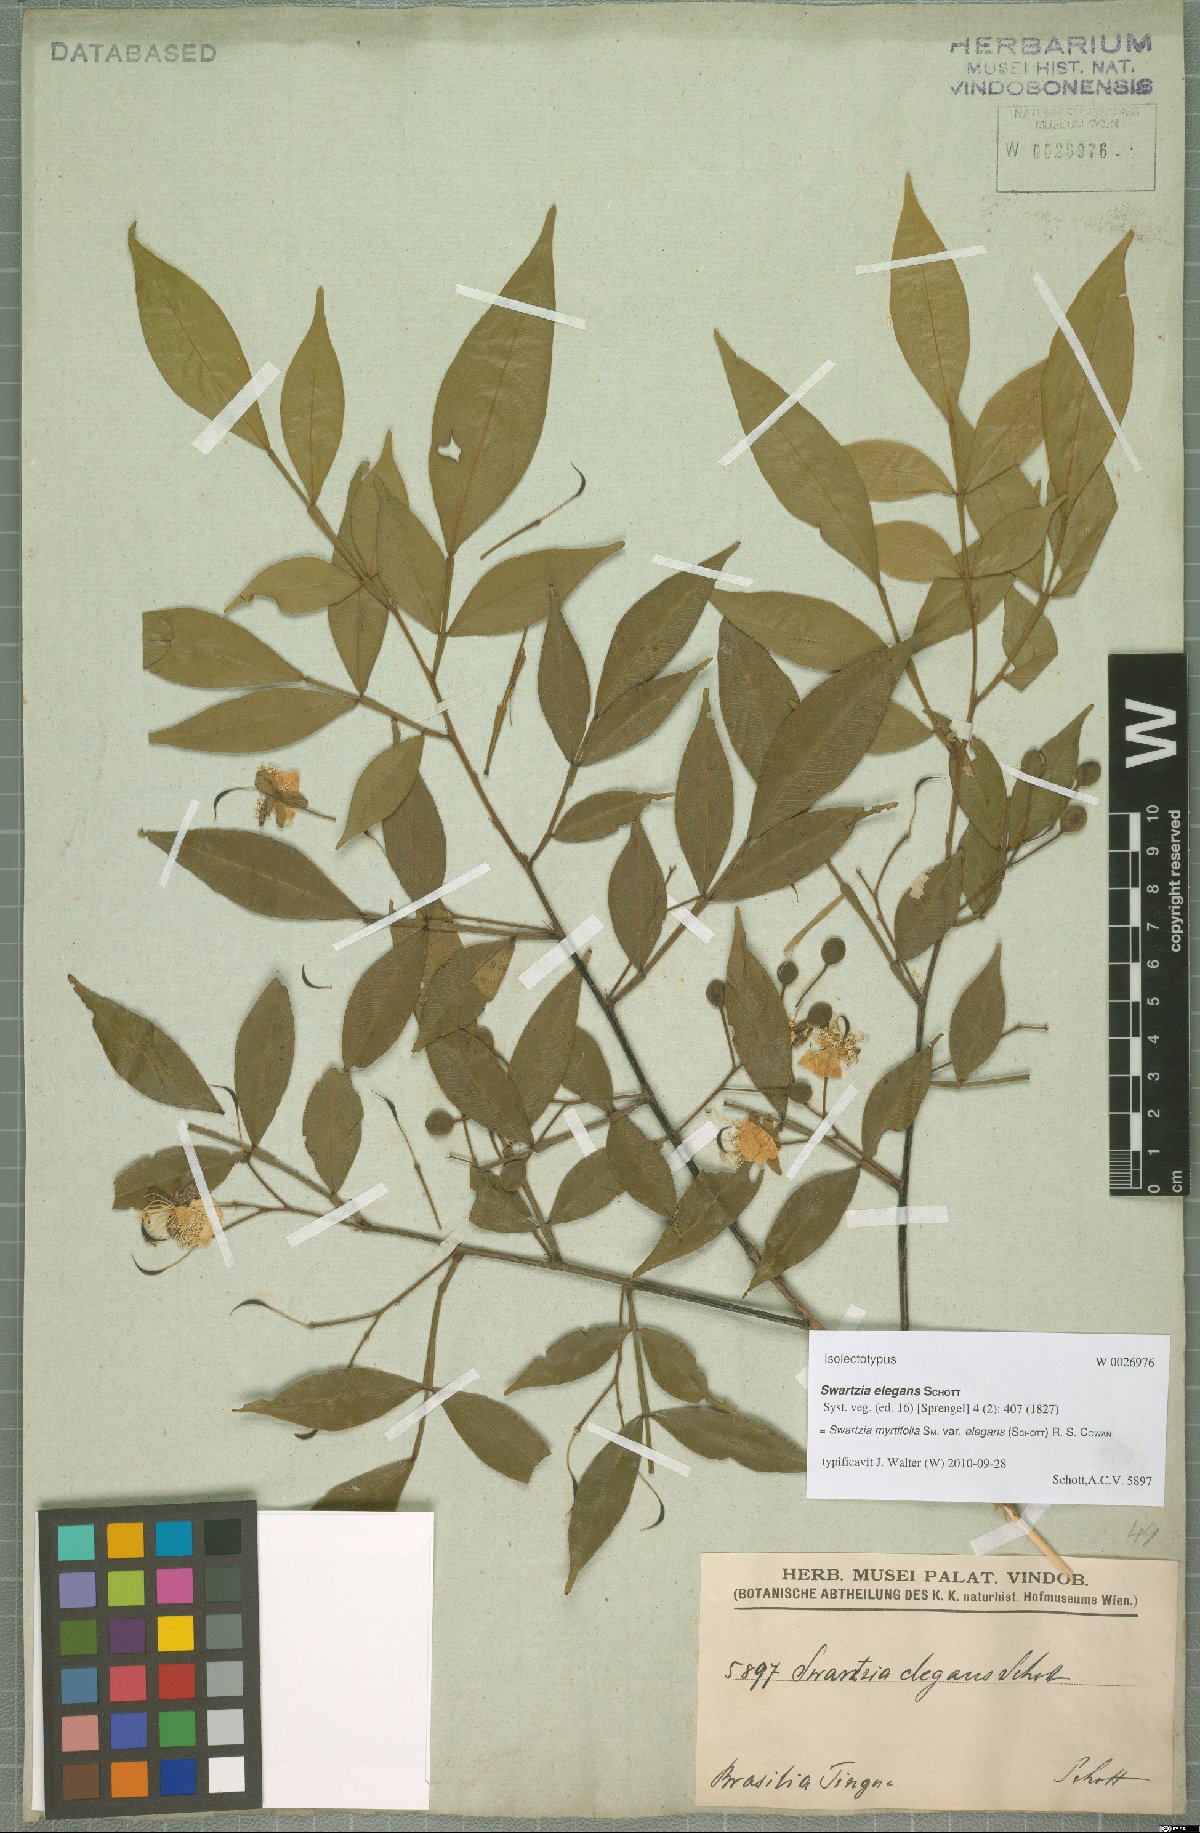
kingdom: Plantae
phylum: Tracheophyta
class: Magnoliopsida
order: Fabales
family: Fabaceae
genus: Swartzia
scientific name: Swartzia myrtifolia
